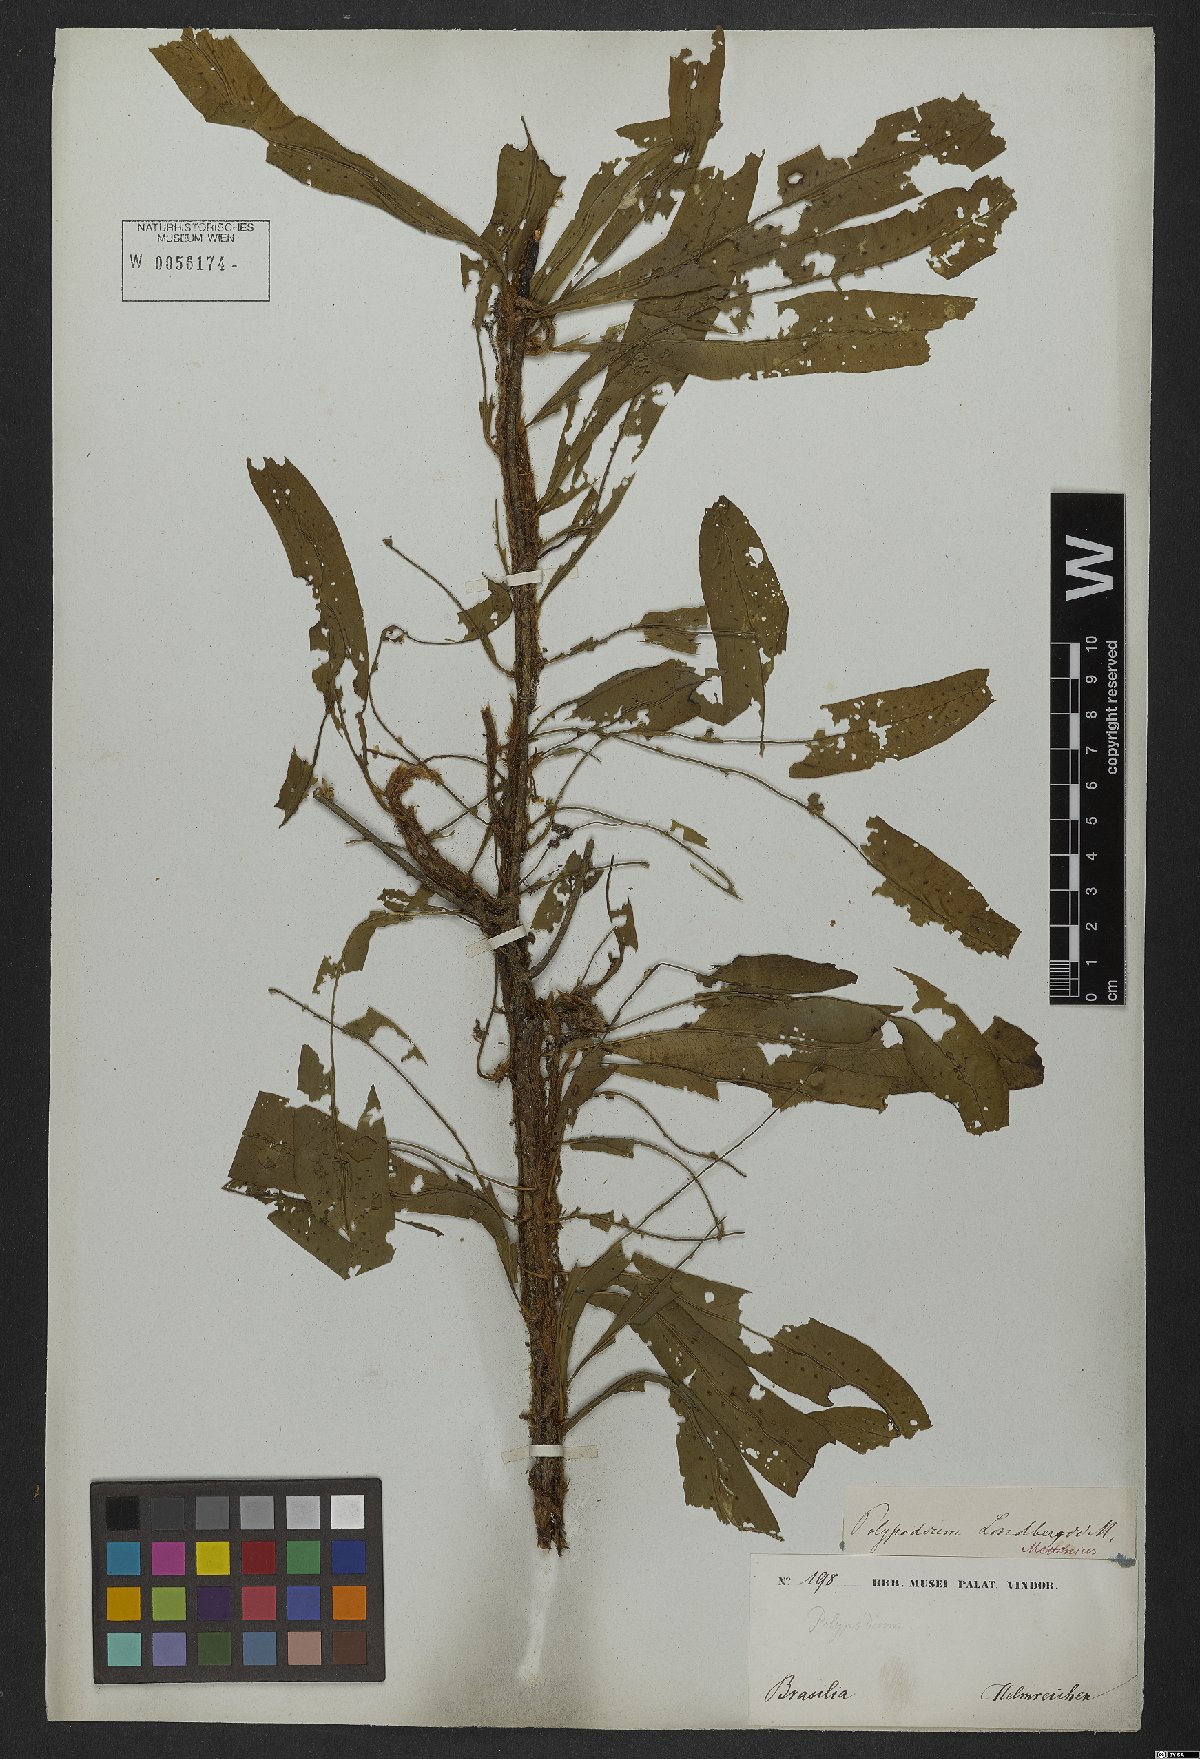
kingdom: Plantae
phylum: Tracheophyta
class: Polypodiopsida
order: Polypodiales
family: Polypodiaceae
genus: Microgramma
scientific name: Microgramma lindbergii
